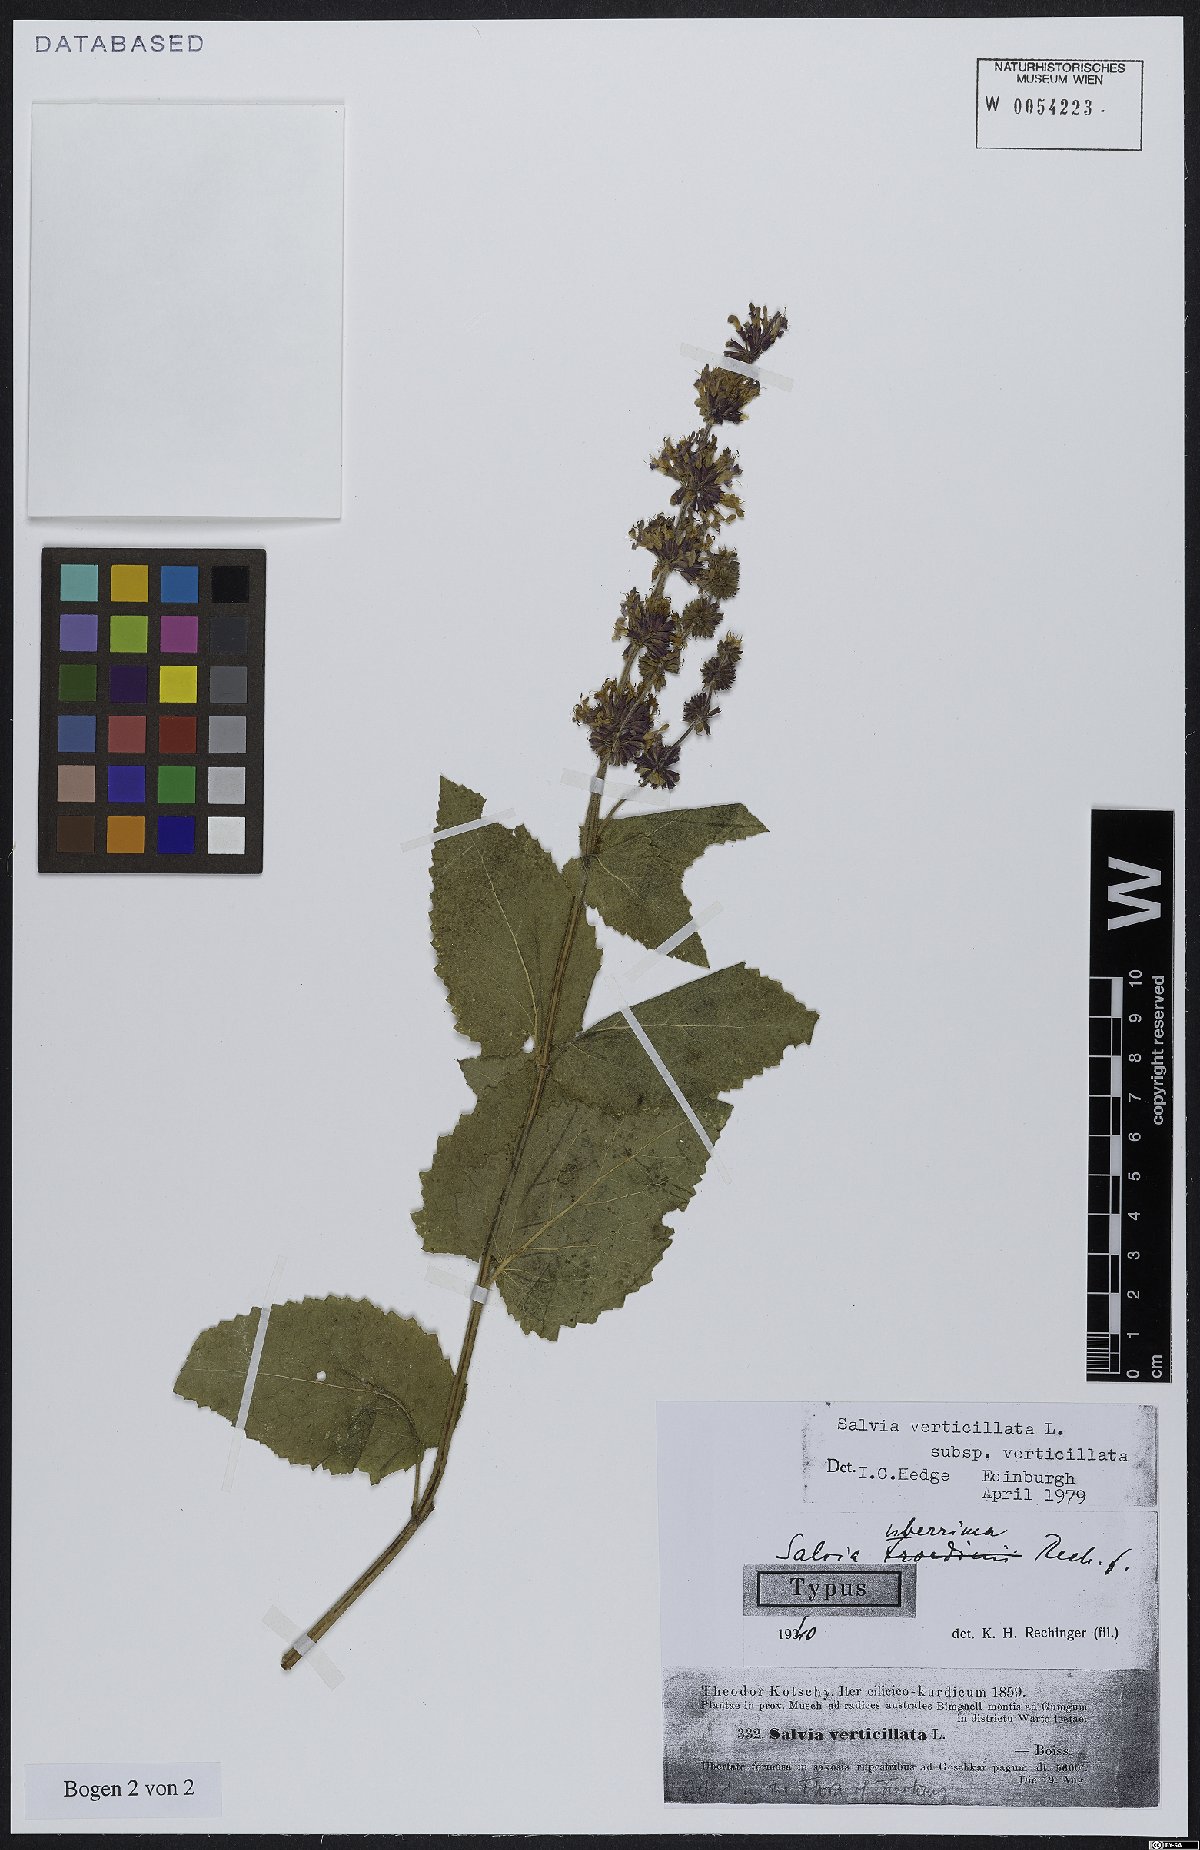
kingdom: Plantae
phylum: Tracheophyta
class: Magnoliopsida
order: Lamiales
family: Lamiaceae
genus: Salvia
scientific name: Salvia verticillata
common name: Whorled clary
